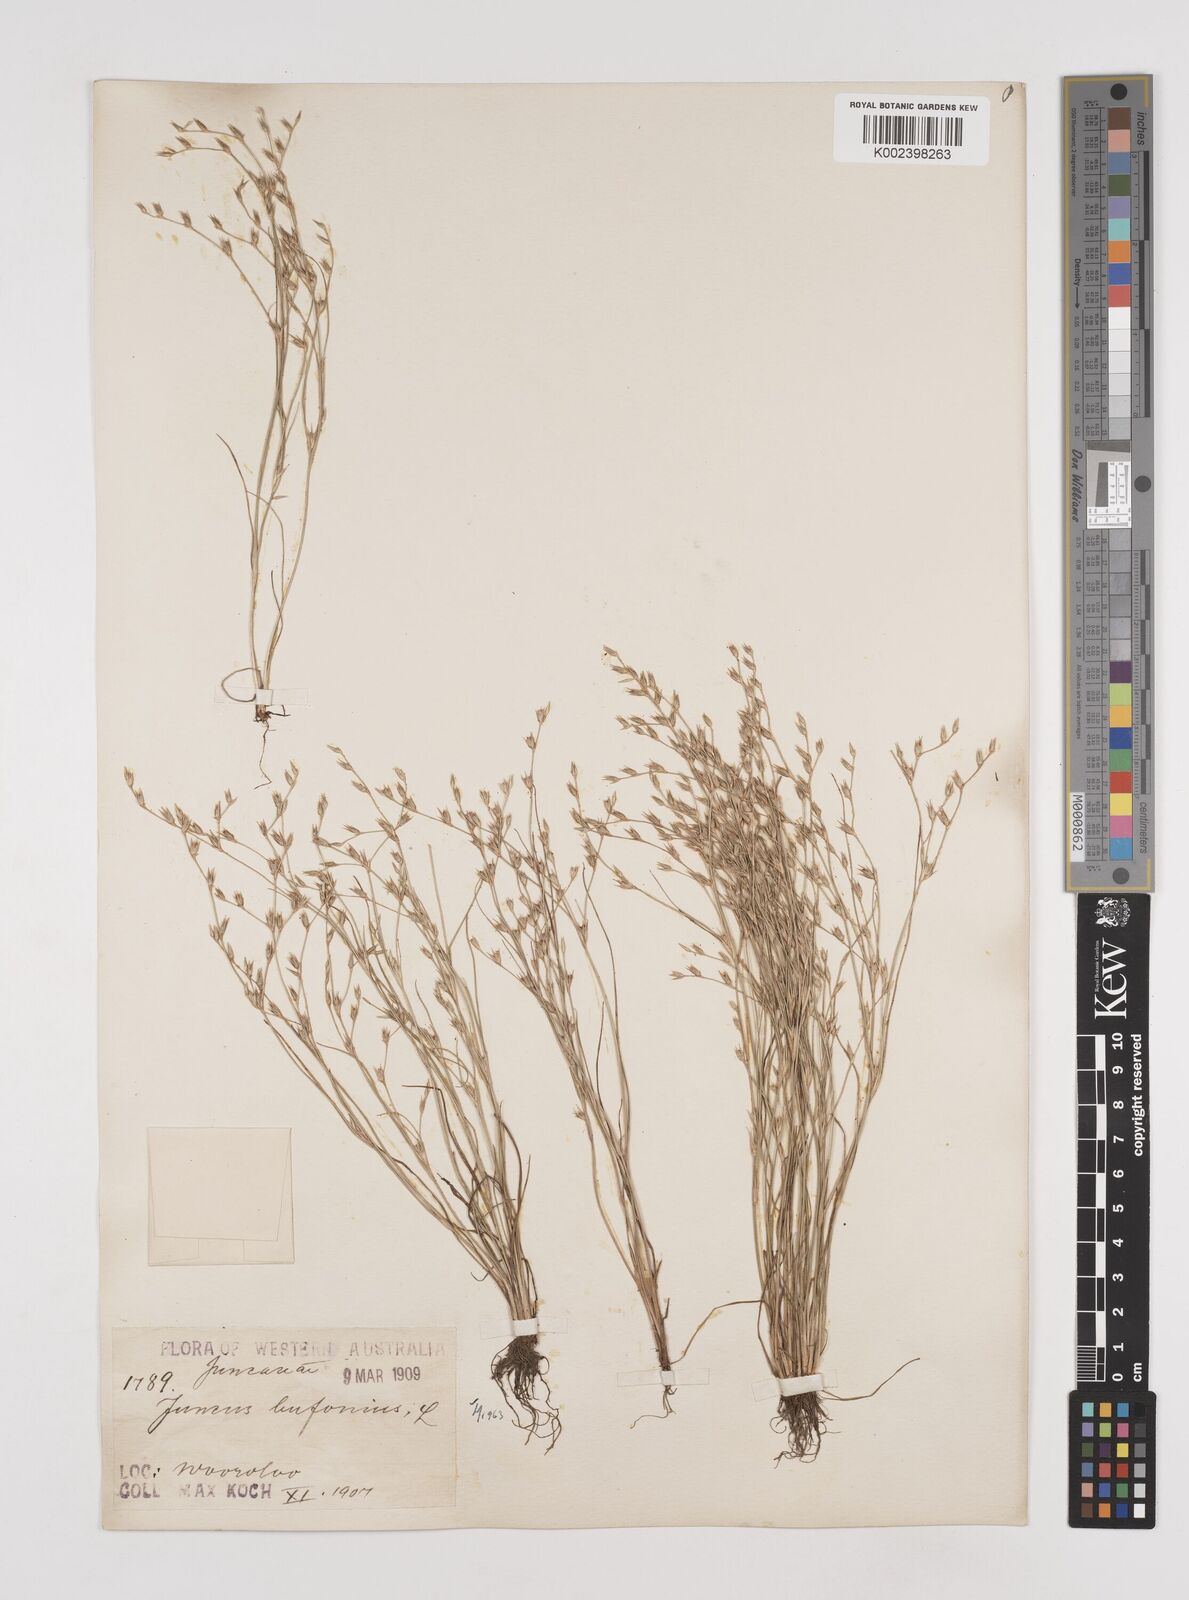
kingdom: Plantae
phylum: Tracheophyta
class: Liliopsida
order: Poales
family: Juncaceae
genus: Juncus
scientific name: Juncus bufonius
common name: Toad rush
